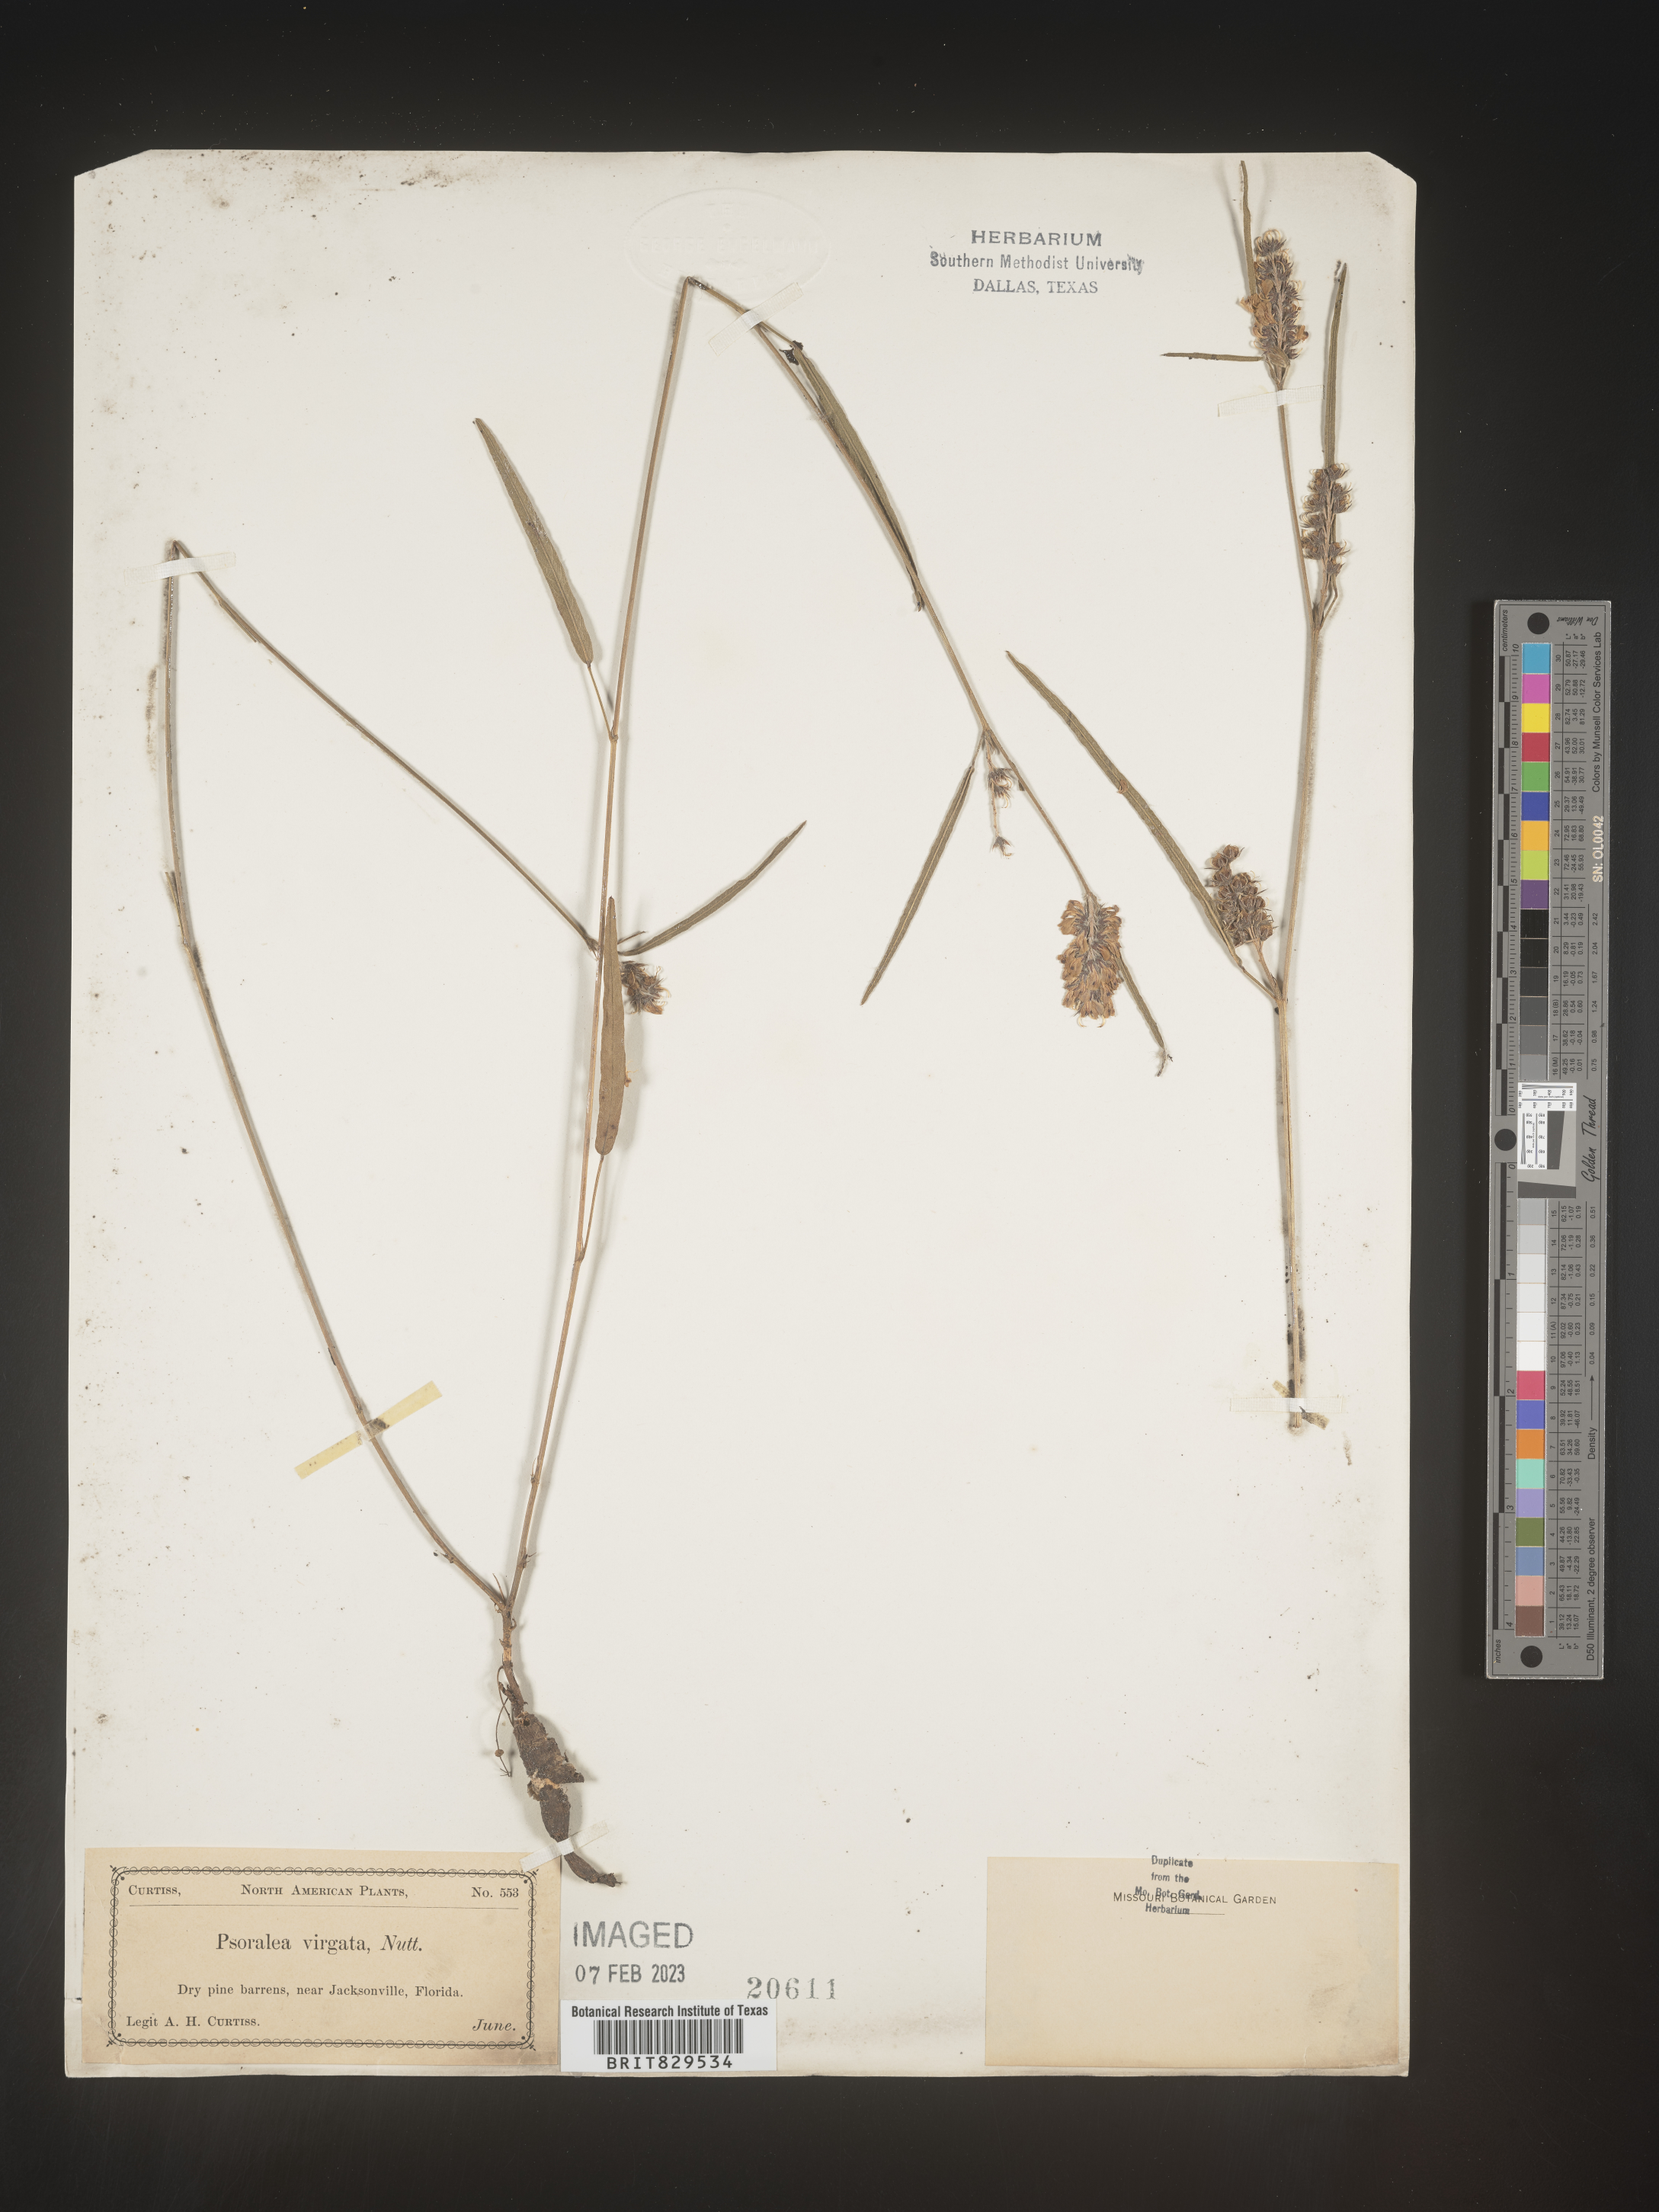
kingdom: Plantae
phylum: Tracheophyta
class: Magnoliopsida
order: Fabales
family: Fabaceae
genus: Psoralea
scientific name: Psoralea
